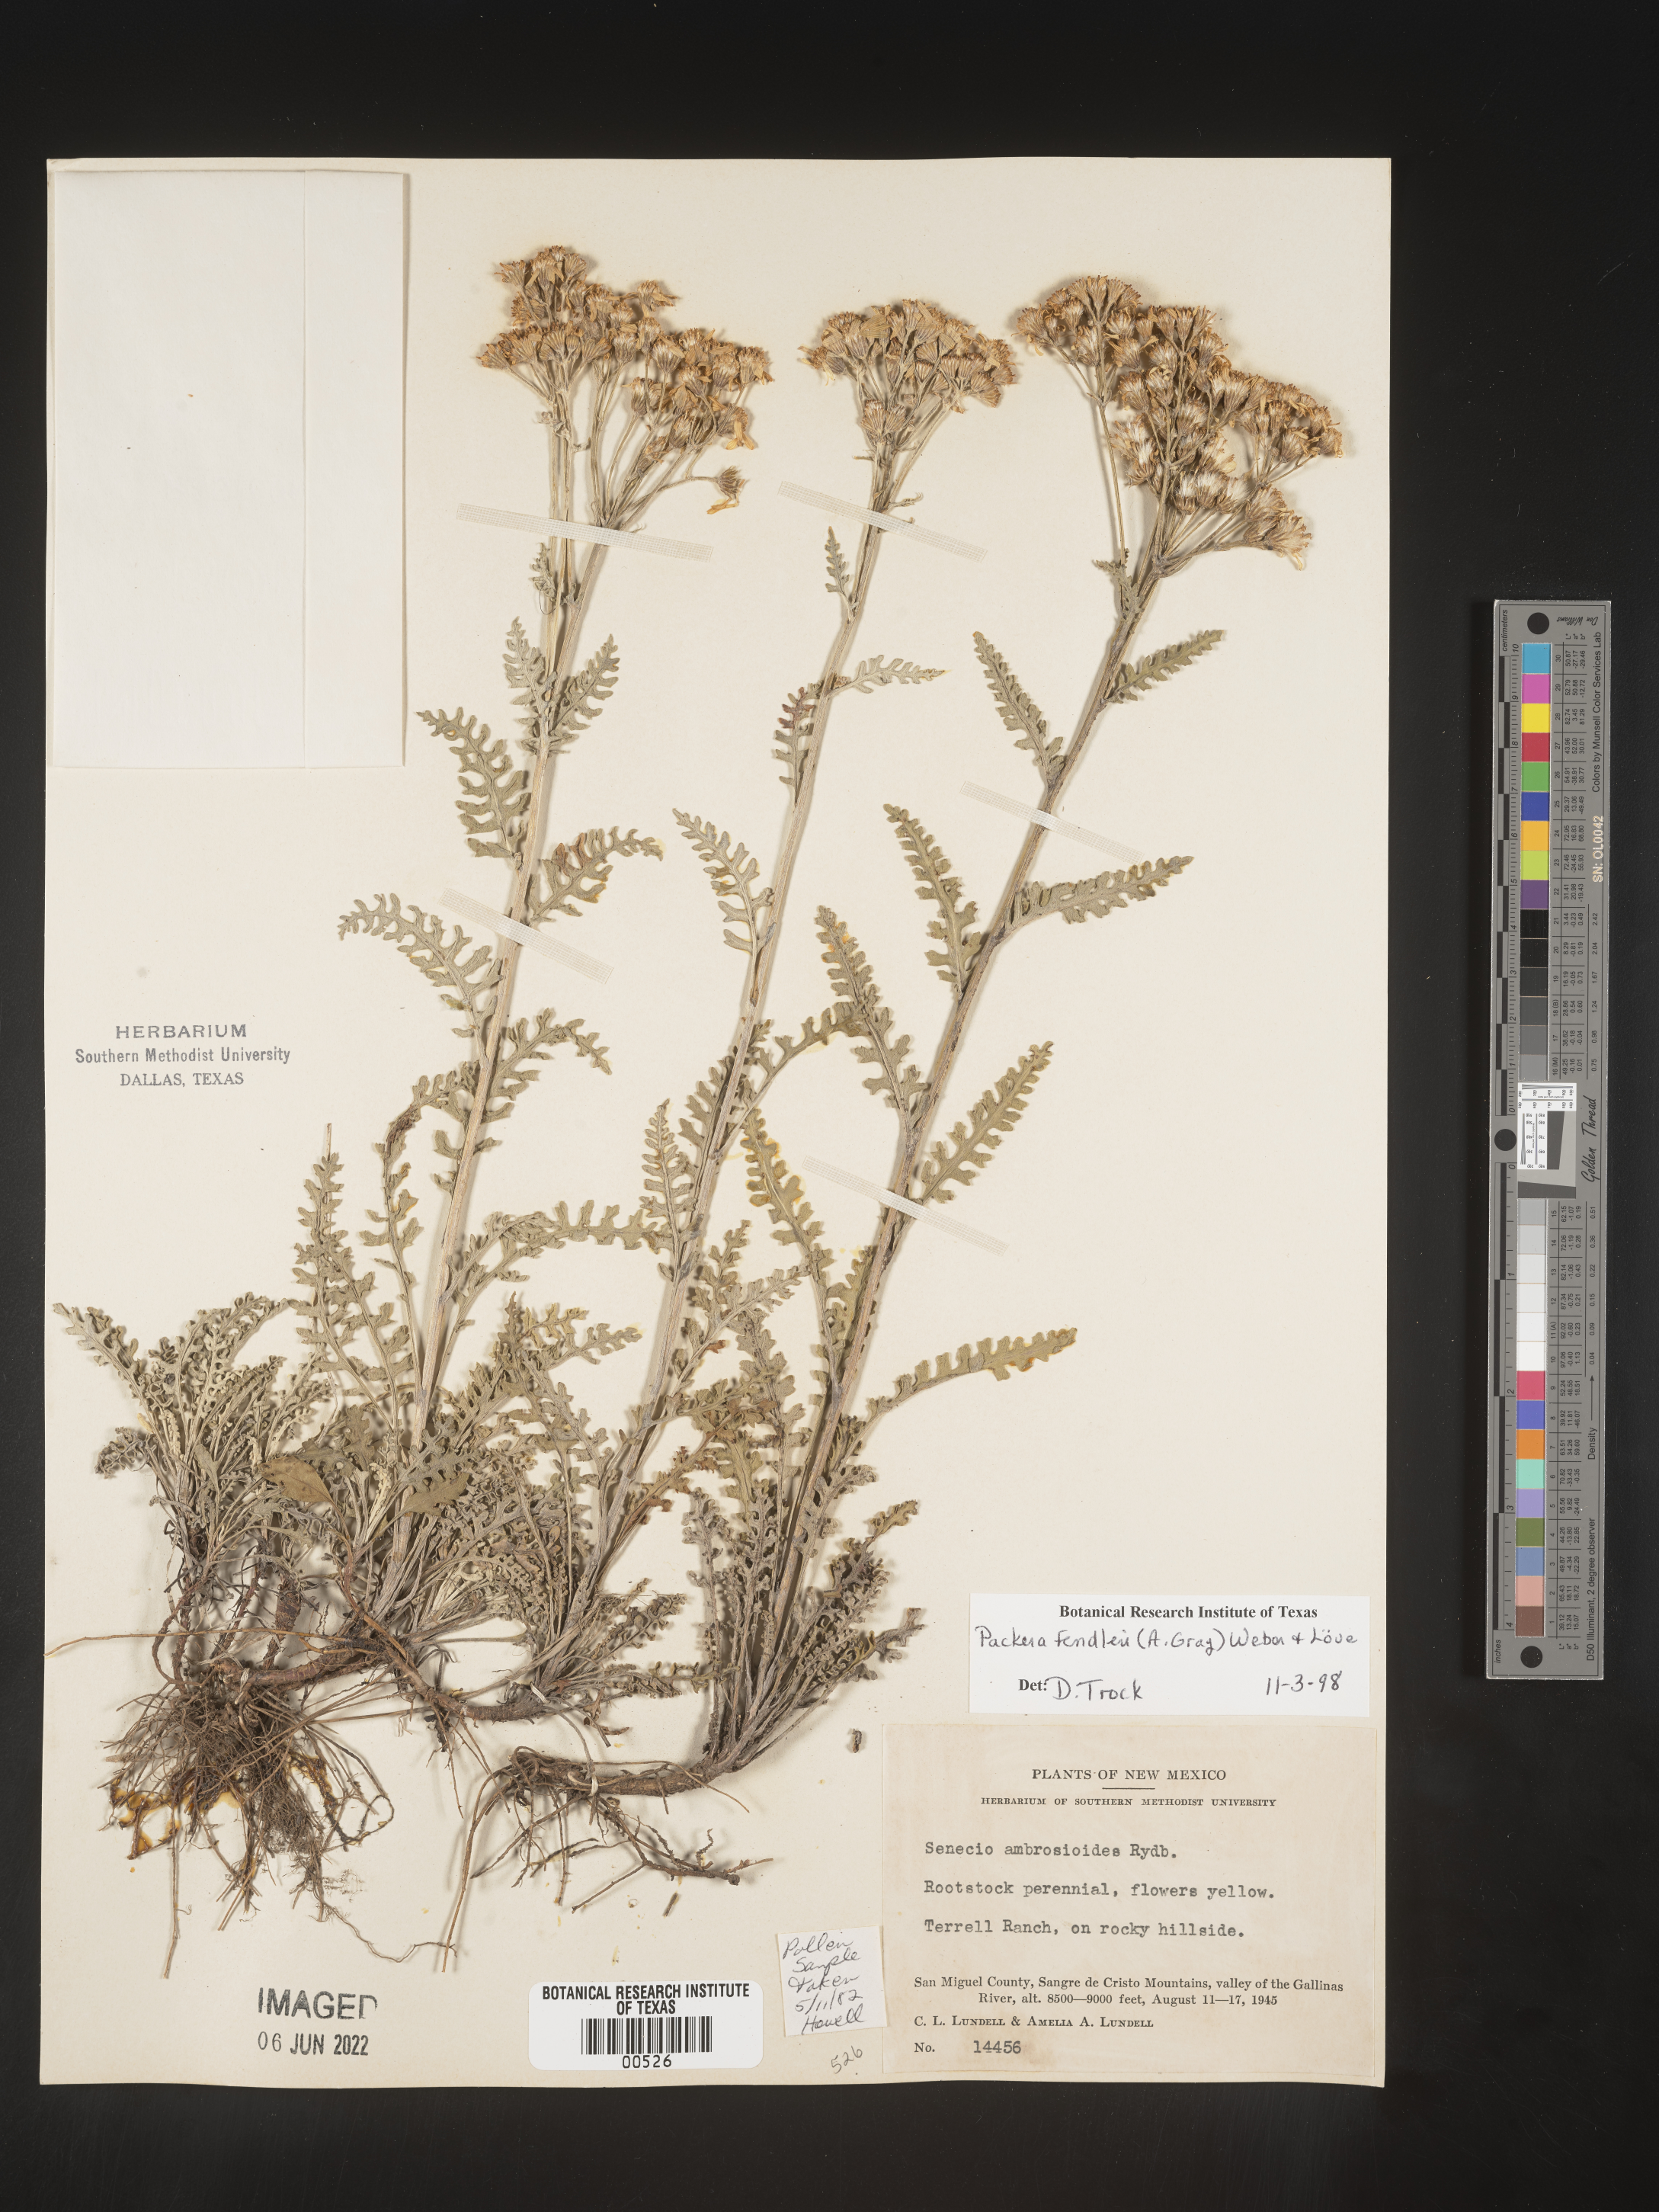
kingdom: Plantae
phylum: Tracheophyta
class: Magnoliopsida
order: Asterales
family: Asteraceae
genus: Packera
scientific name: Packera fendleri
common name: Notch-leaf butterweed
